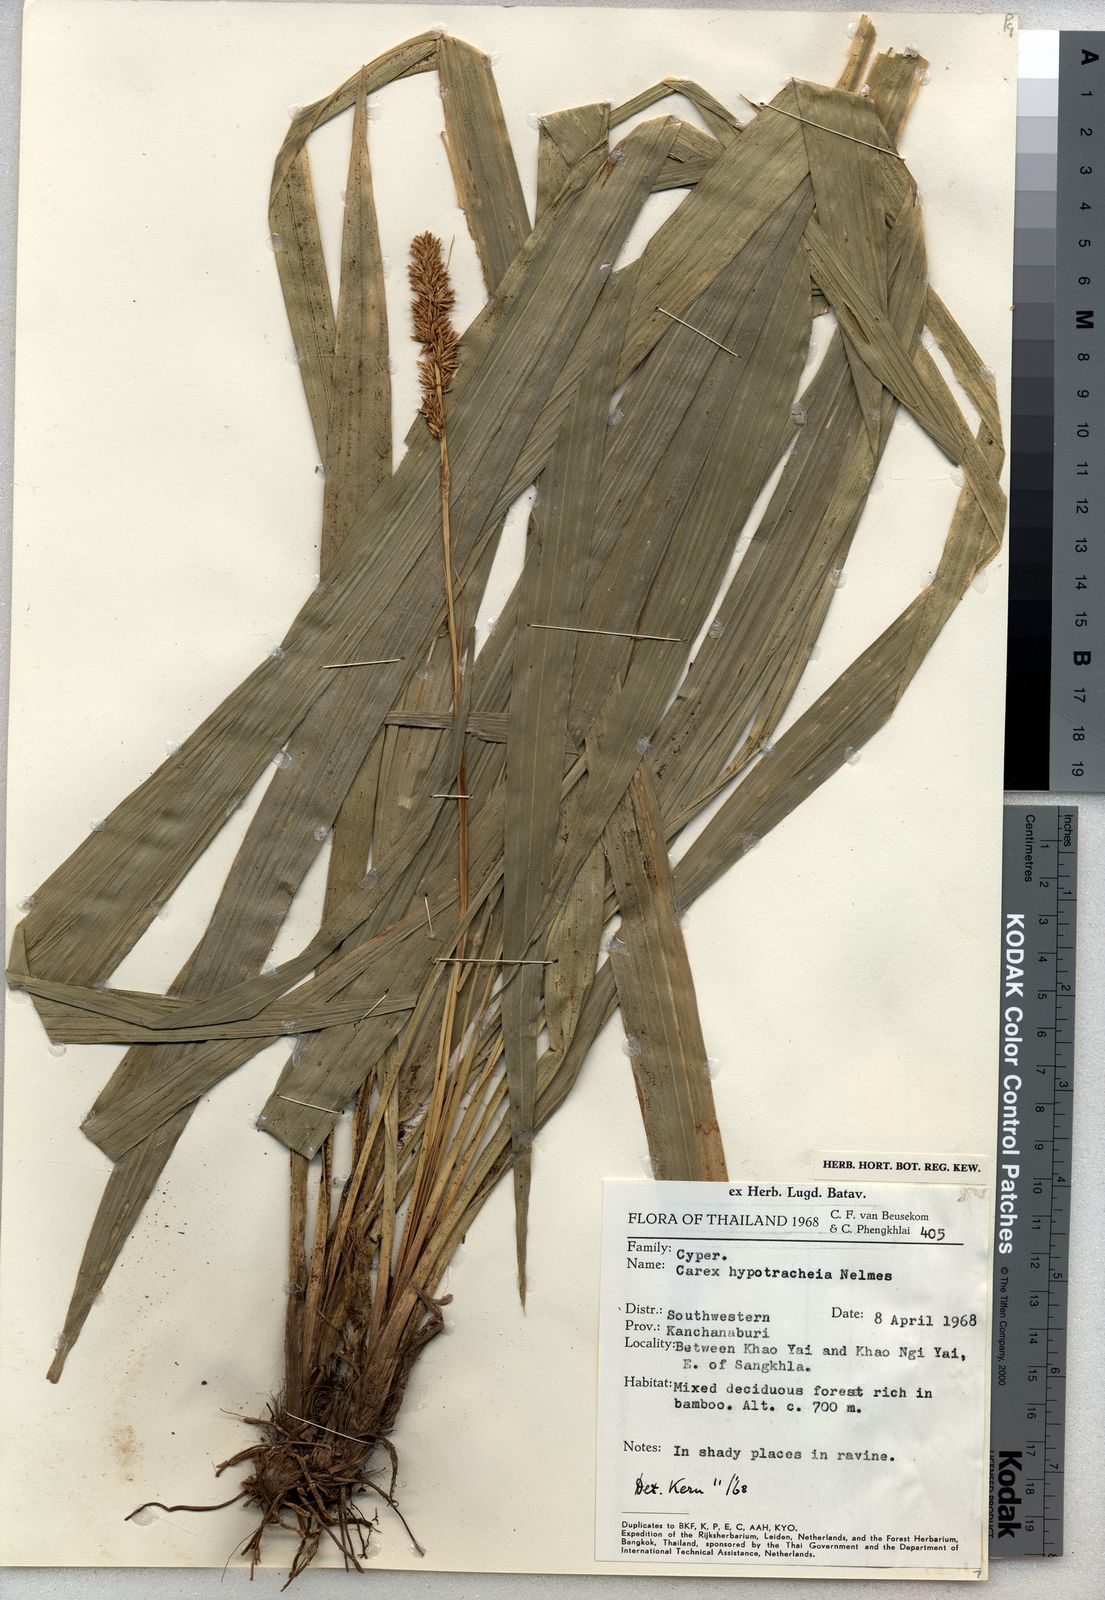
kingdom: Plantae
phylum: Tracheophyta
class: Liliopsida
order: Poales
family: Cyperaceae
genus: Carex
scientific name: Carex meeboldiana
